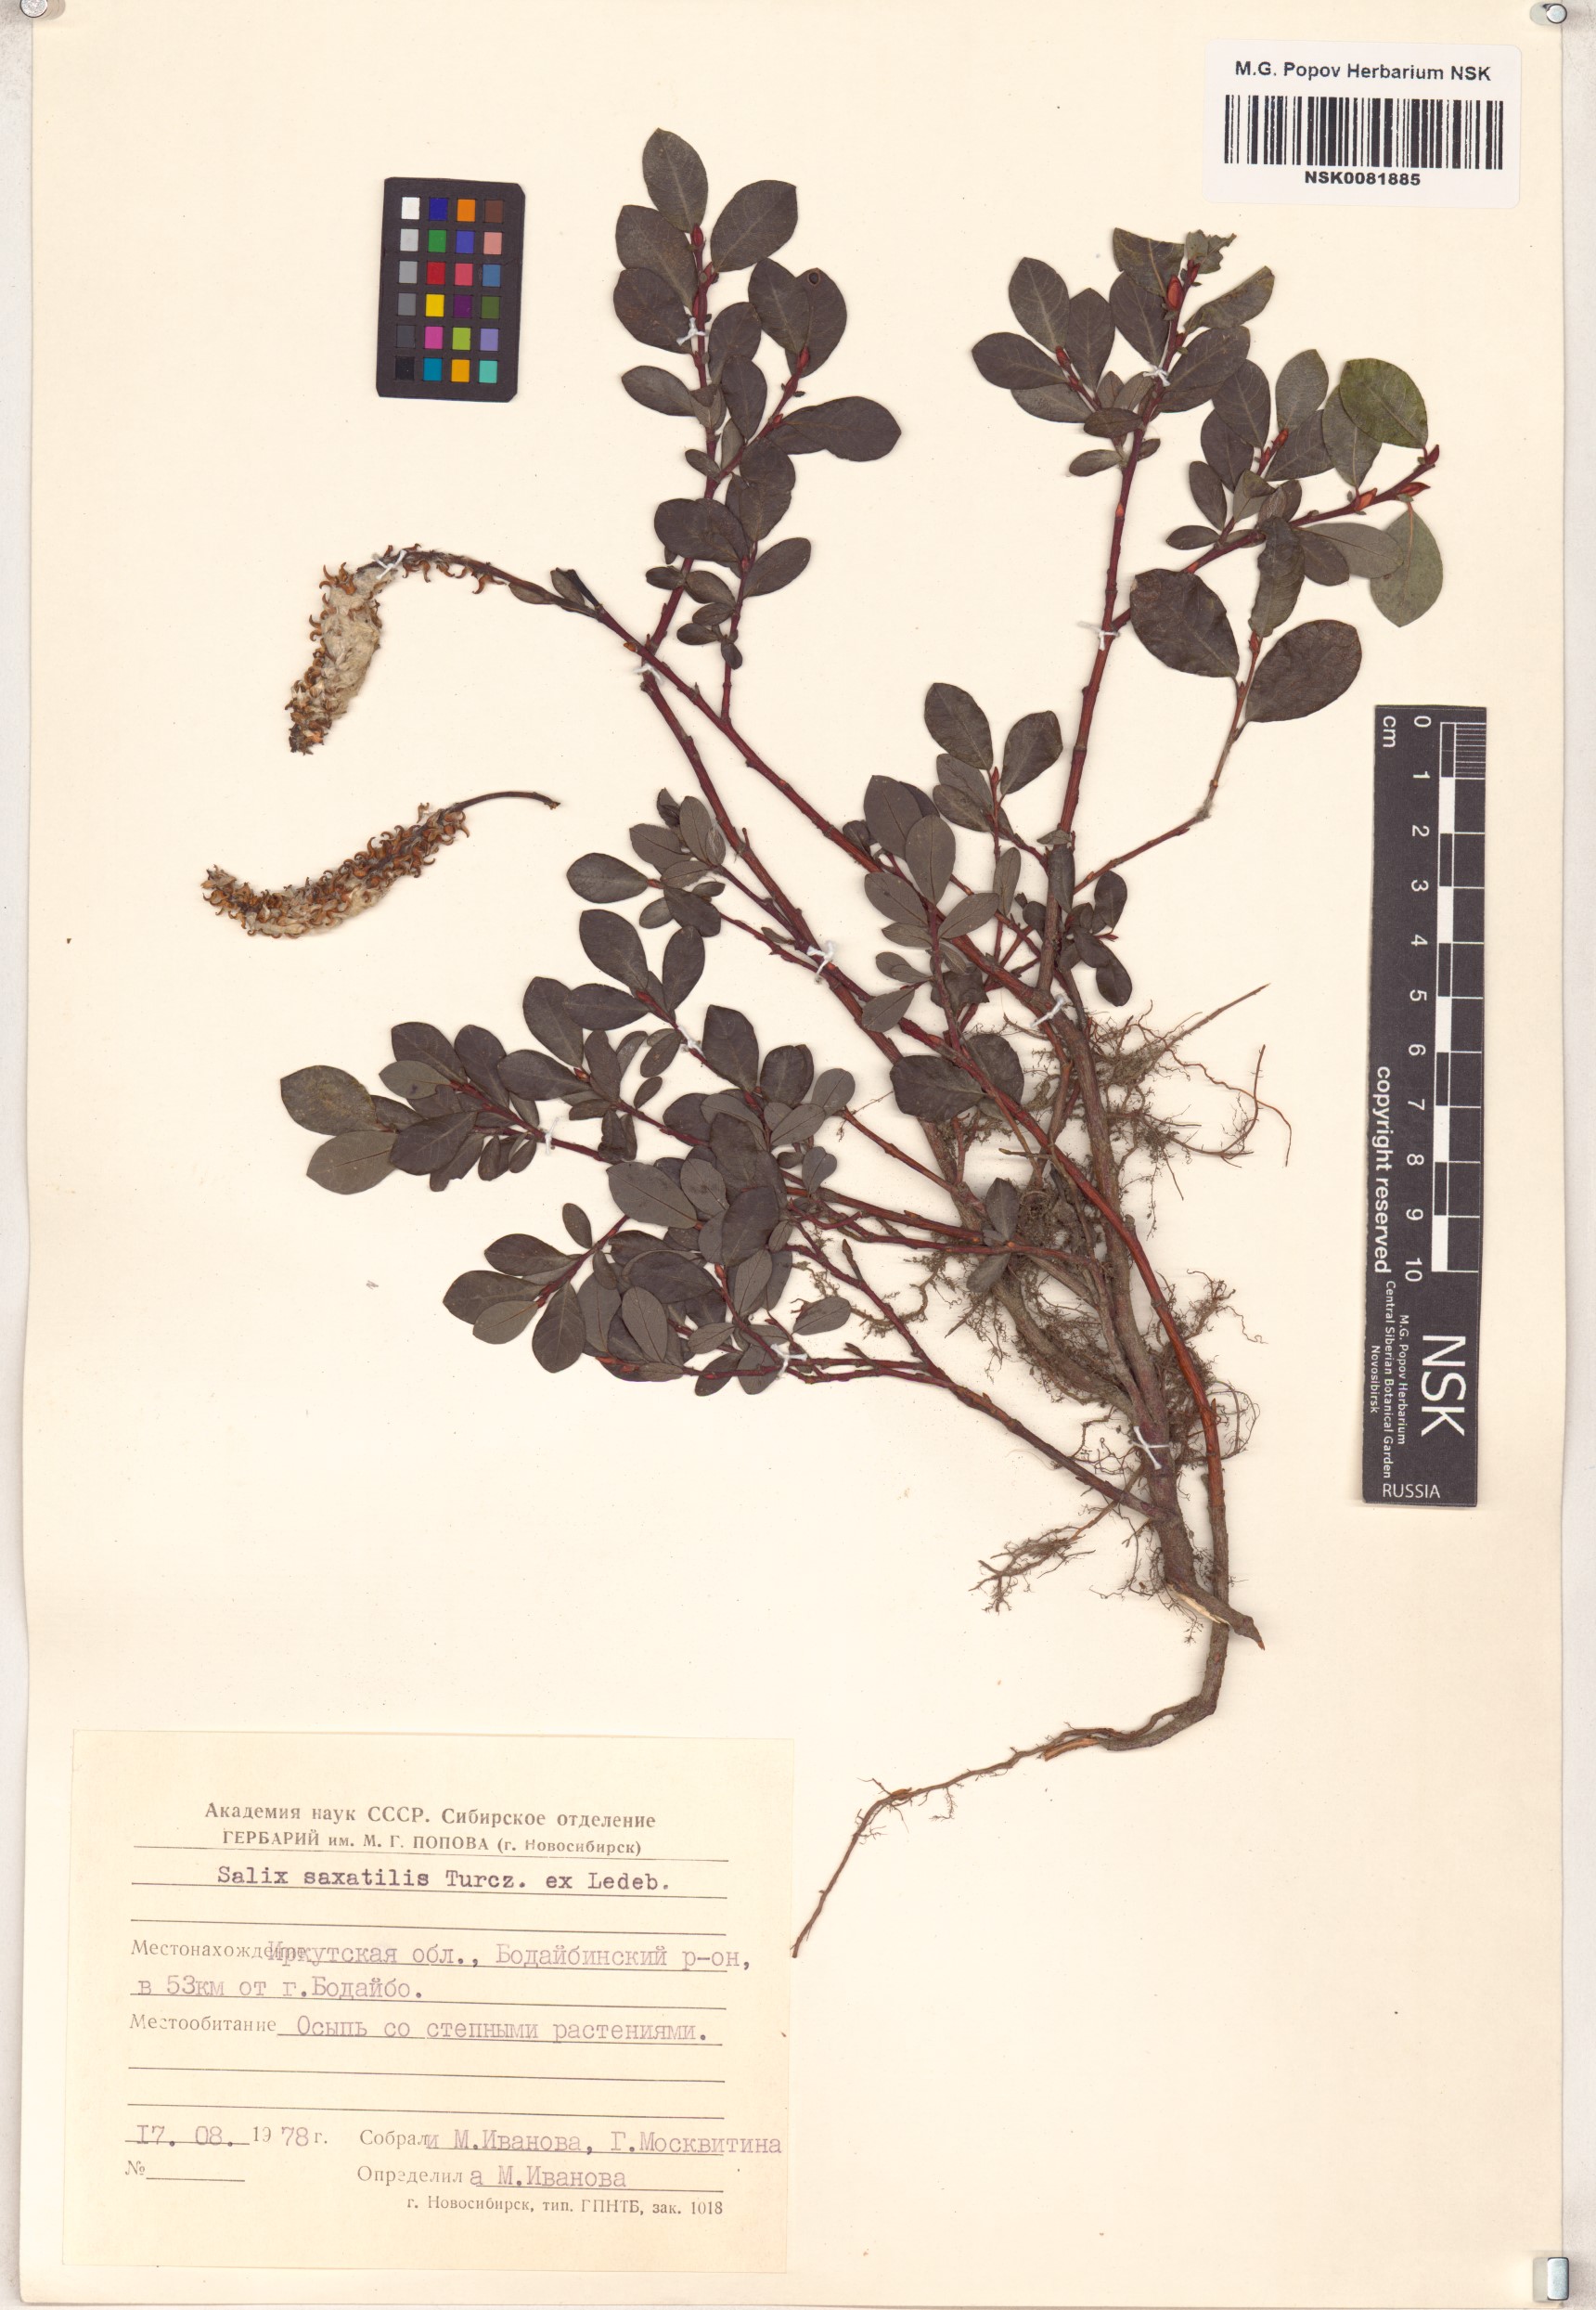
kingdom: Plantae
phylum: Tracheophyta
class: Magnoliopsida
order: Malpighiales
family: Salicaceae
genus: Salix
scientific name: Salix saxatilis
